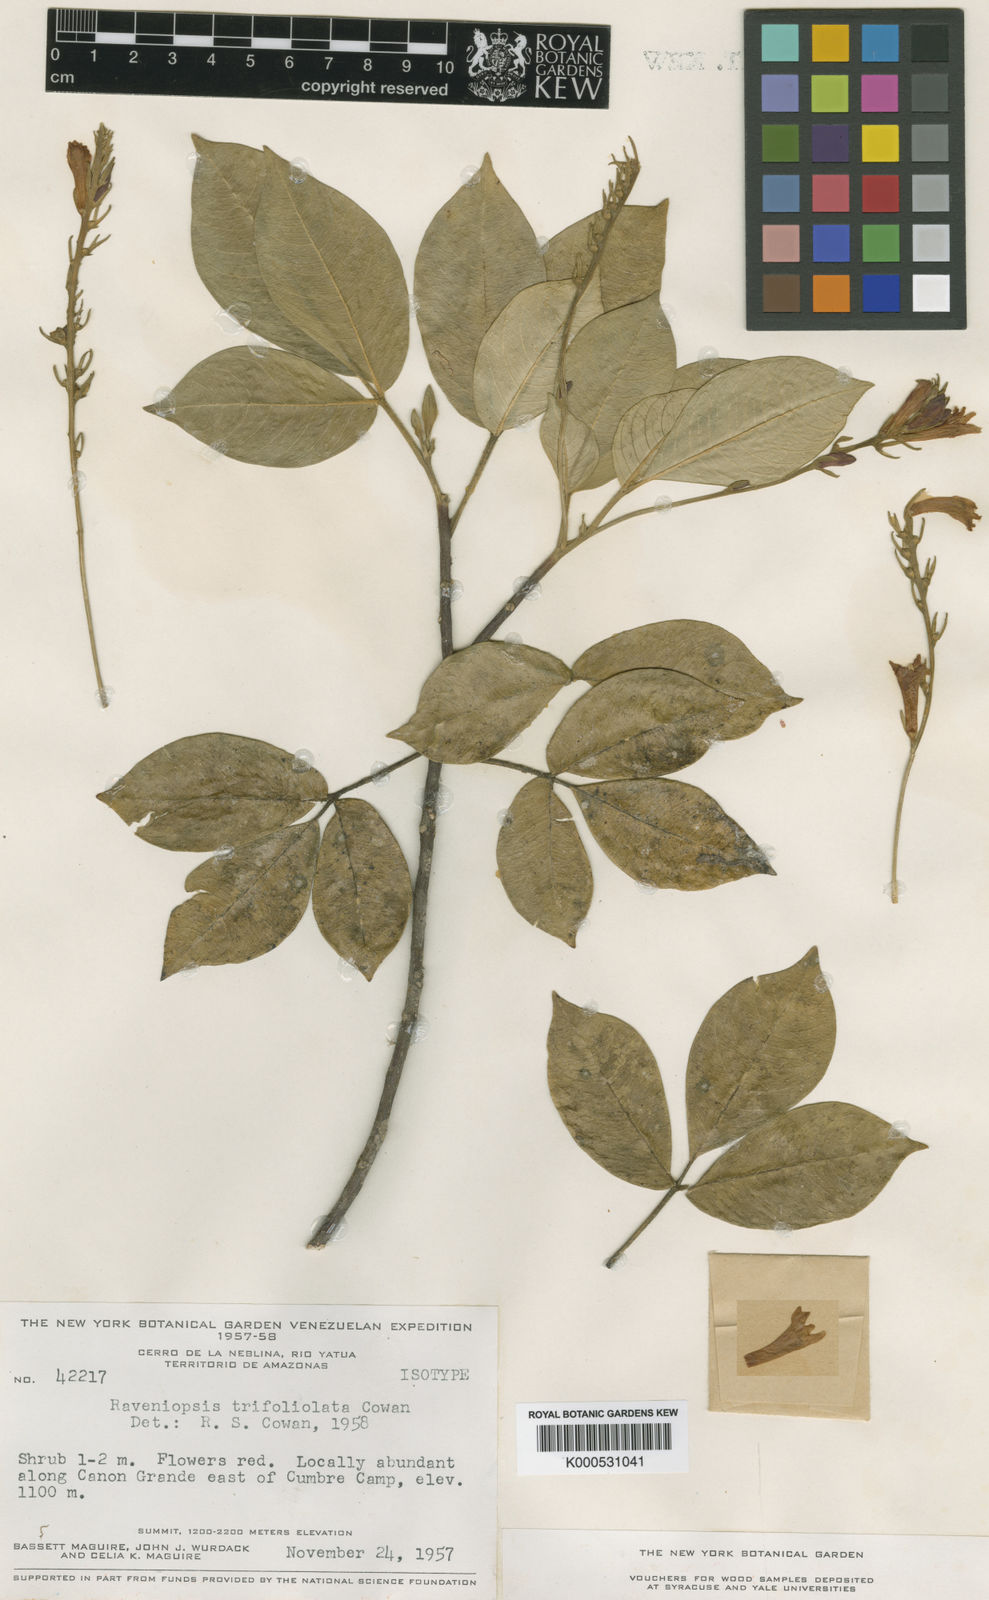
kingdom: Plantae
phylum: Tracheophyta
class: Magnoliopsida
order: Sapindales
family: Rutaceae
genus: Raveniopsis
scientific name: Raveniopsis trifoliolata
